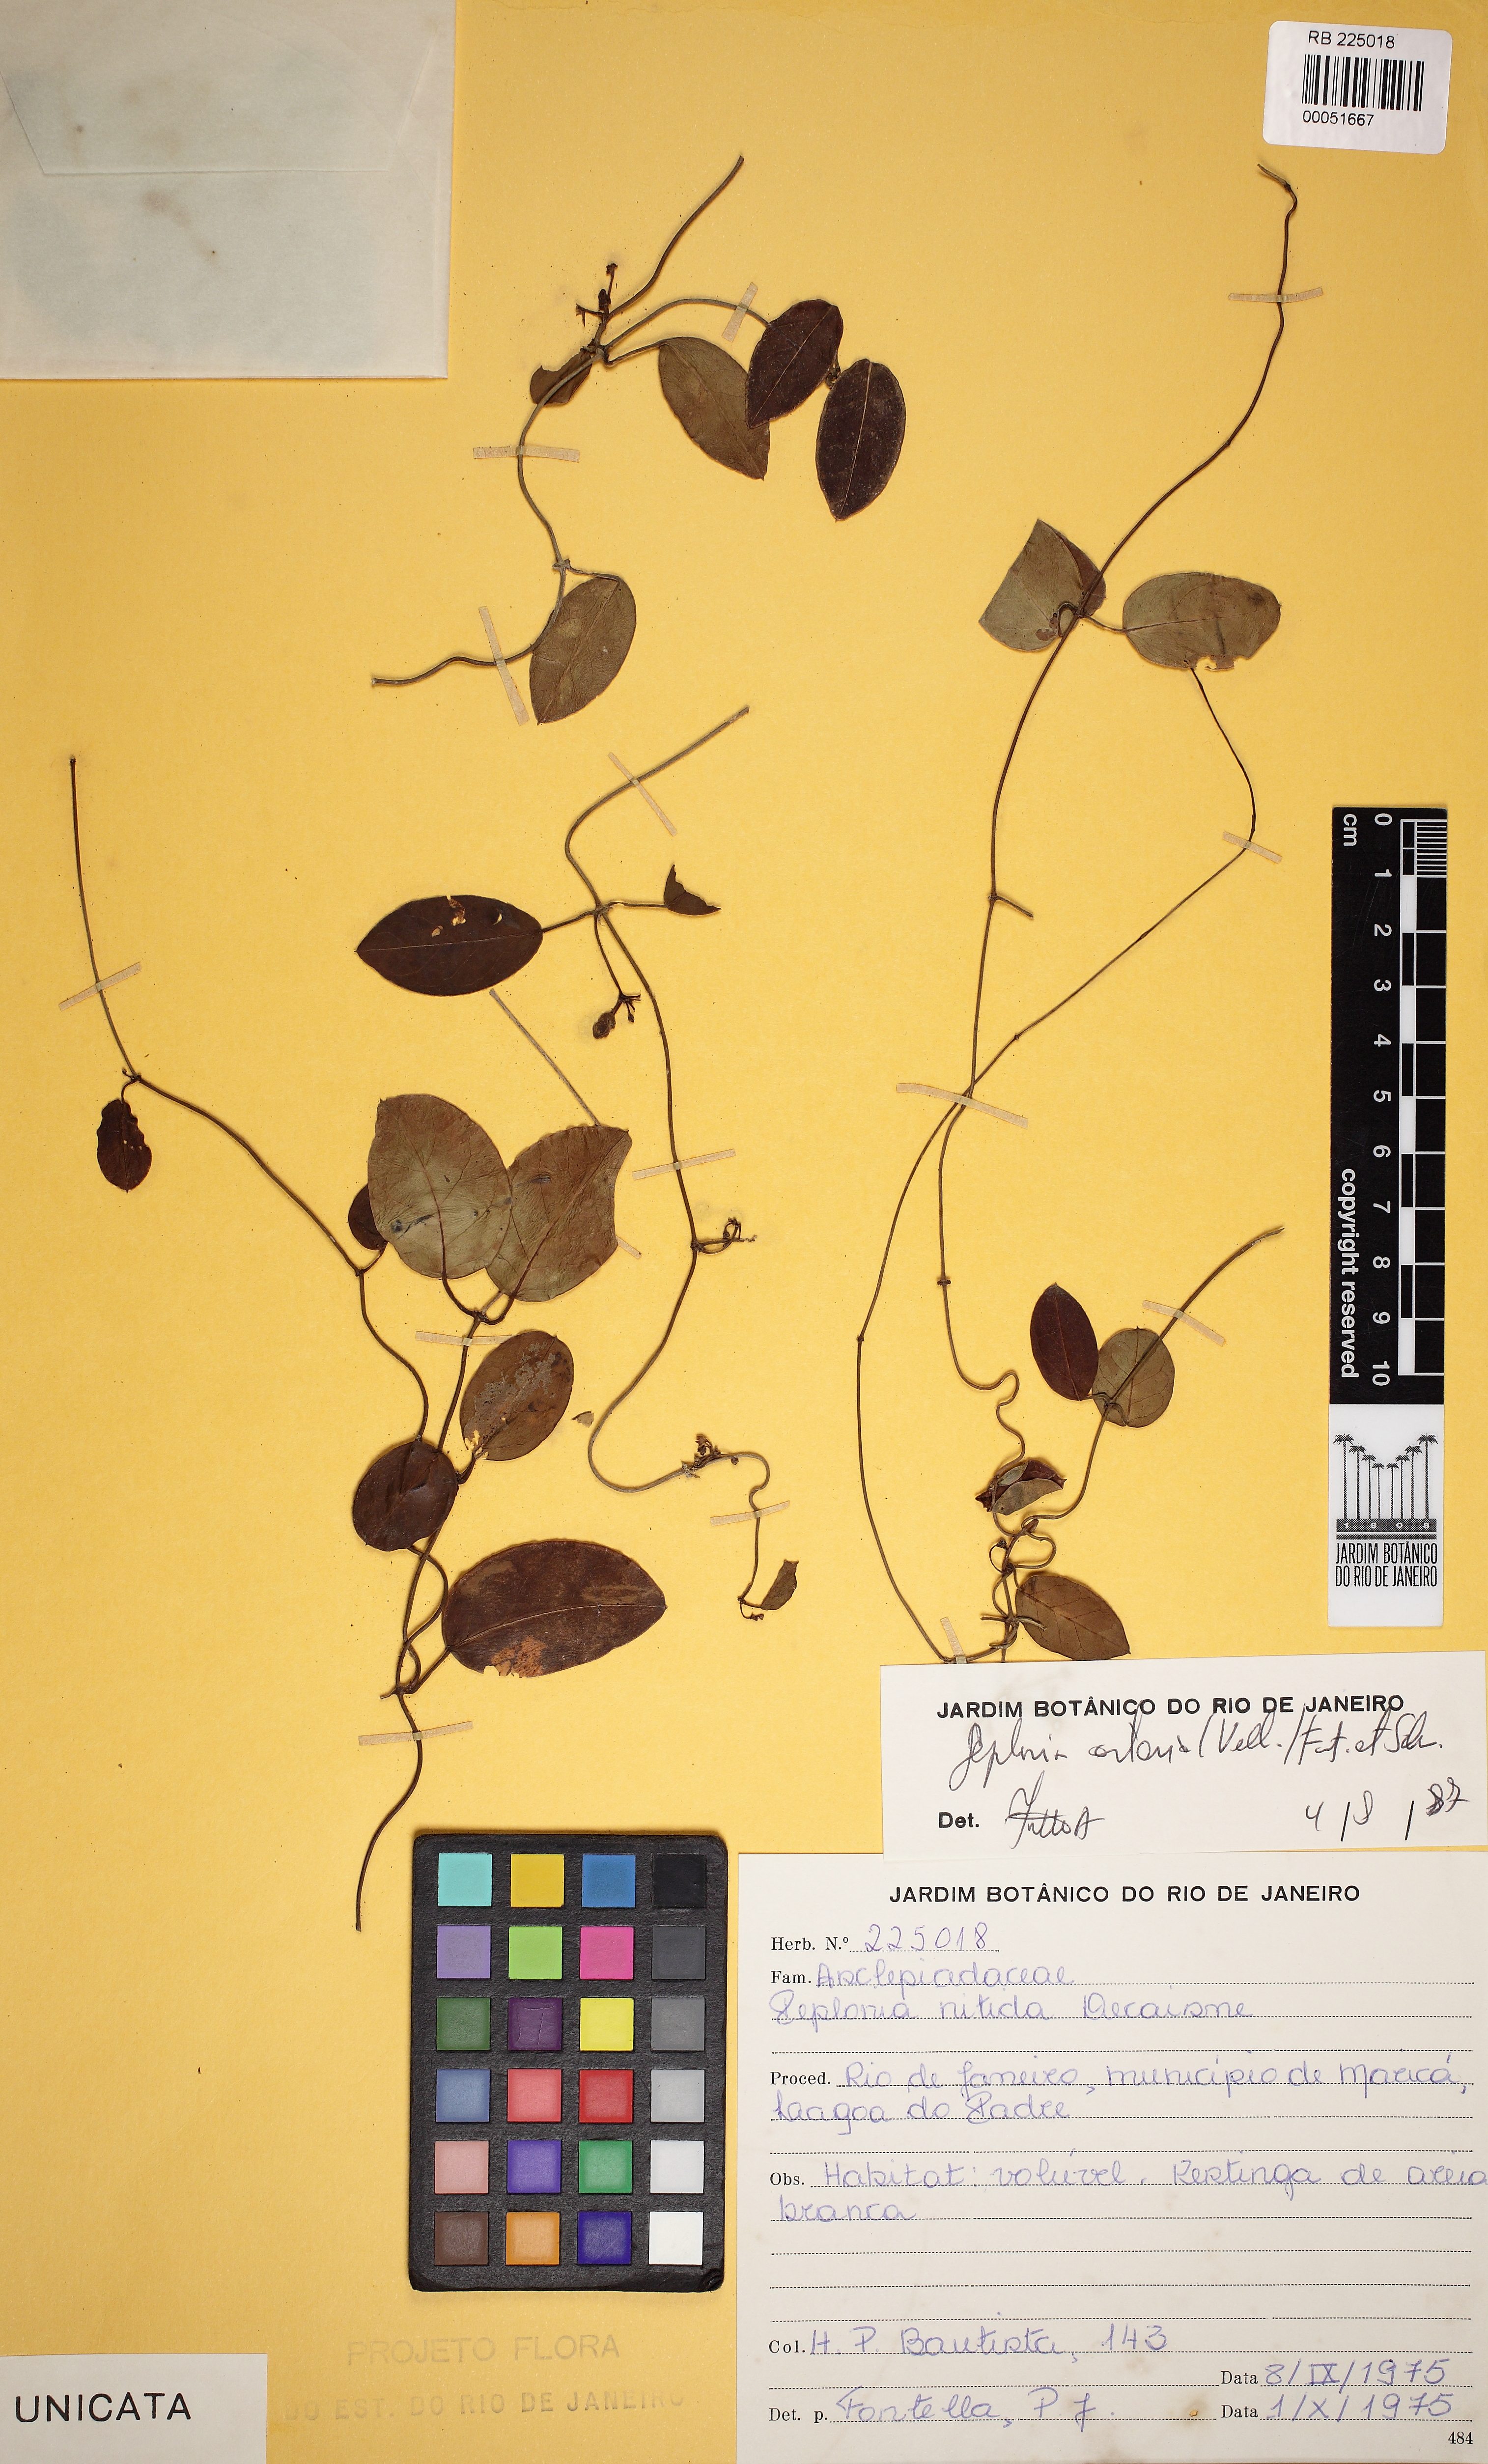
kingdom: Plantae
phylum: Tracheophyta
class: Magnoliopsida
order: Gentianales
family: Apocynaceae
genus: Peplonia
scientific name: Peplonia asteria
